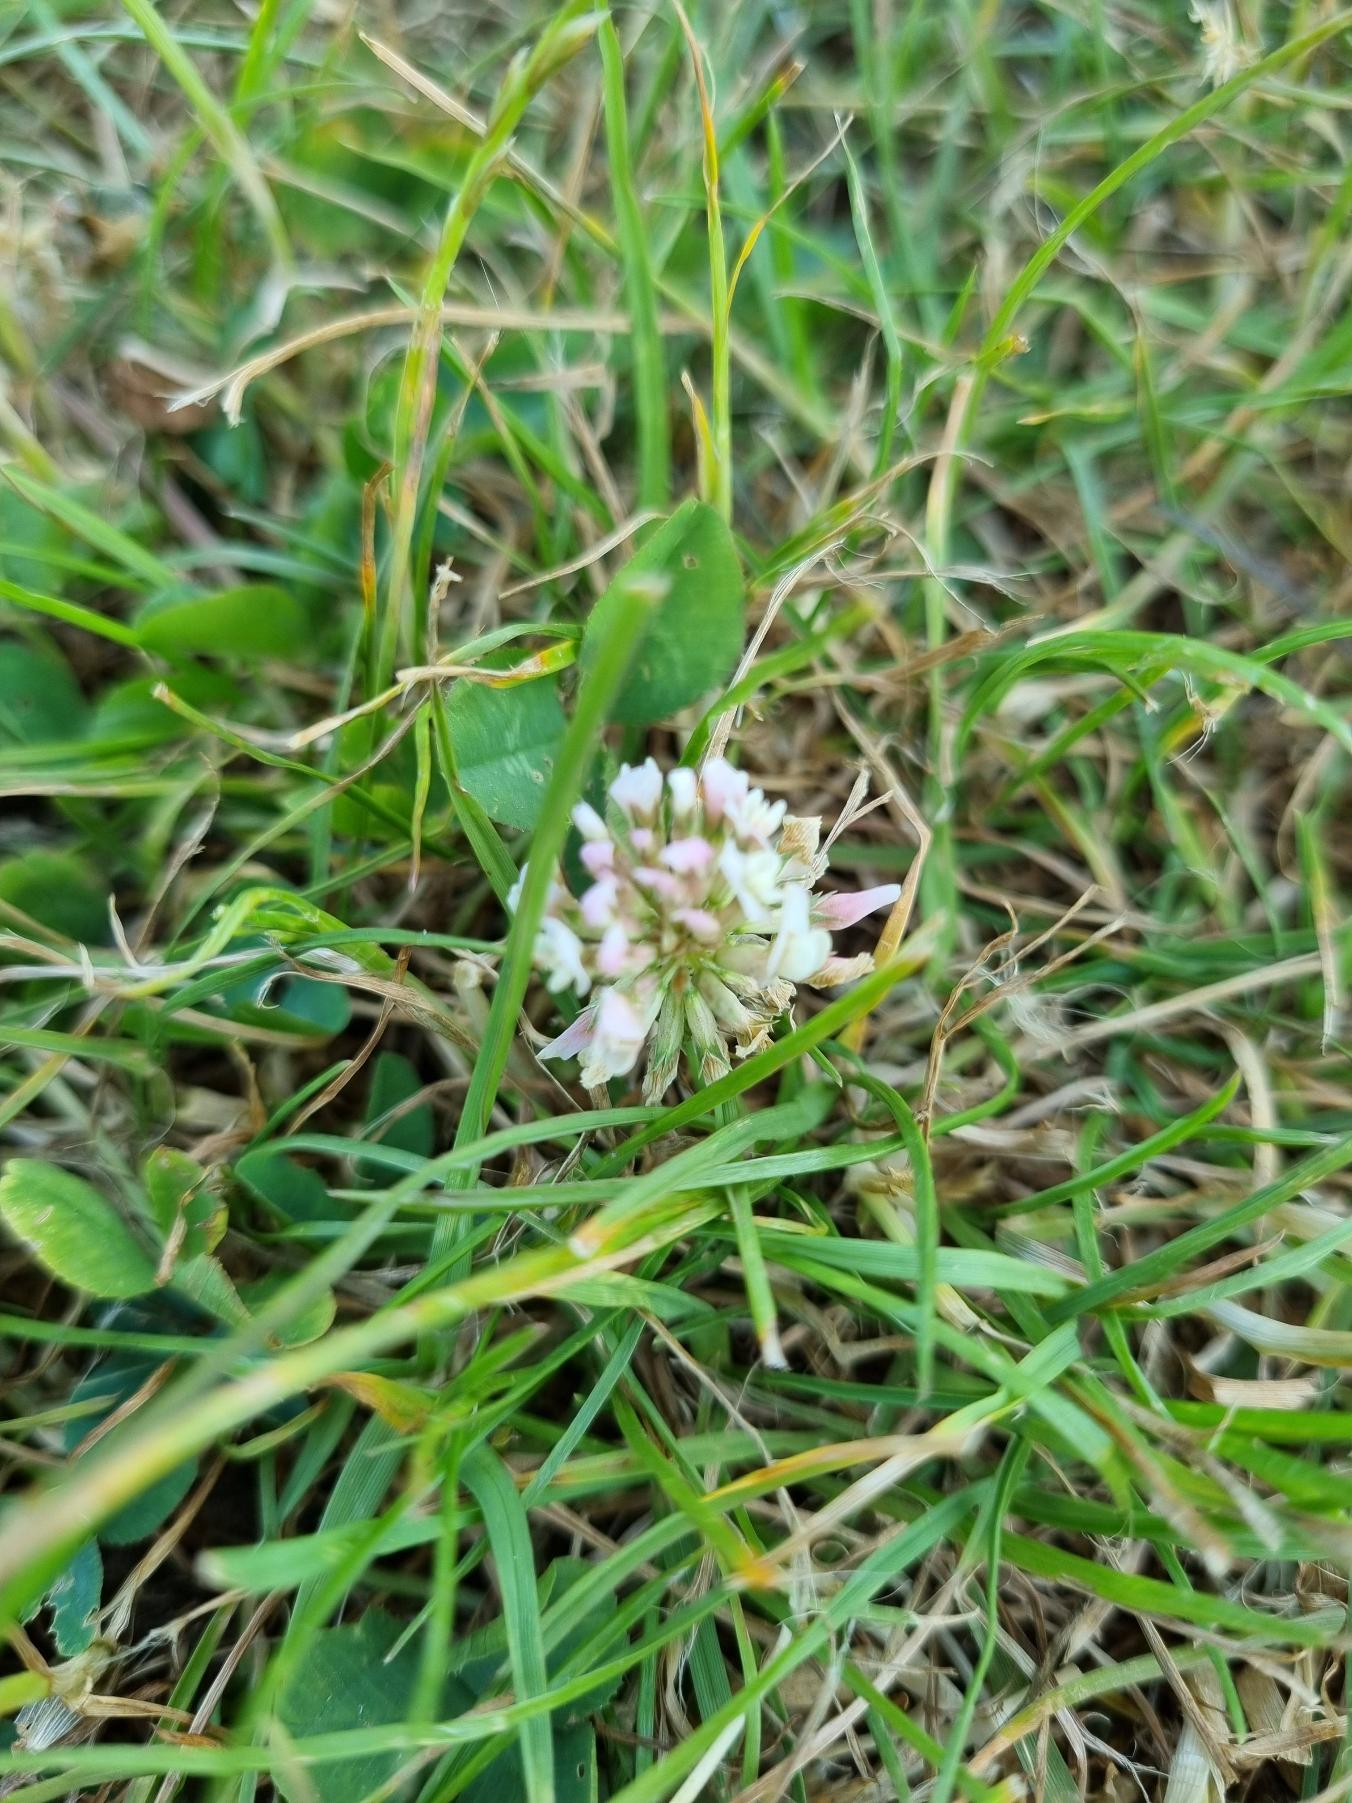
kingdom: Plantae
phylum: Tracheophyta
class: Magnoliopsida
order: Fabales
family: Fabaceae
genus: Trifolium
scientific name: Trifolium repens
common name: Hvid-kløver
